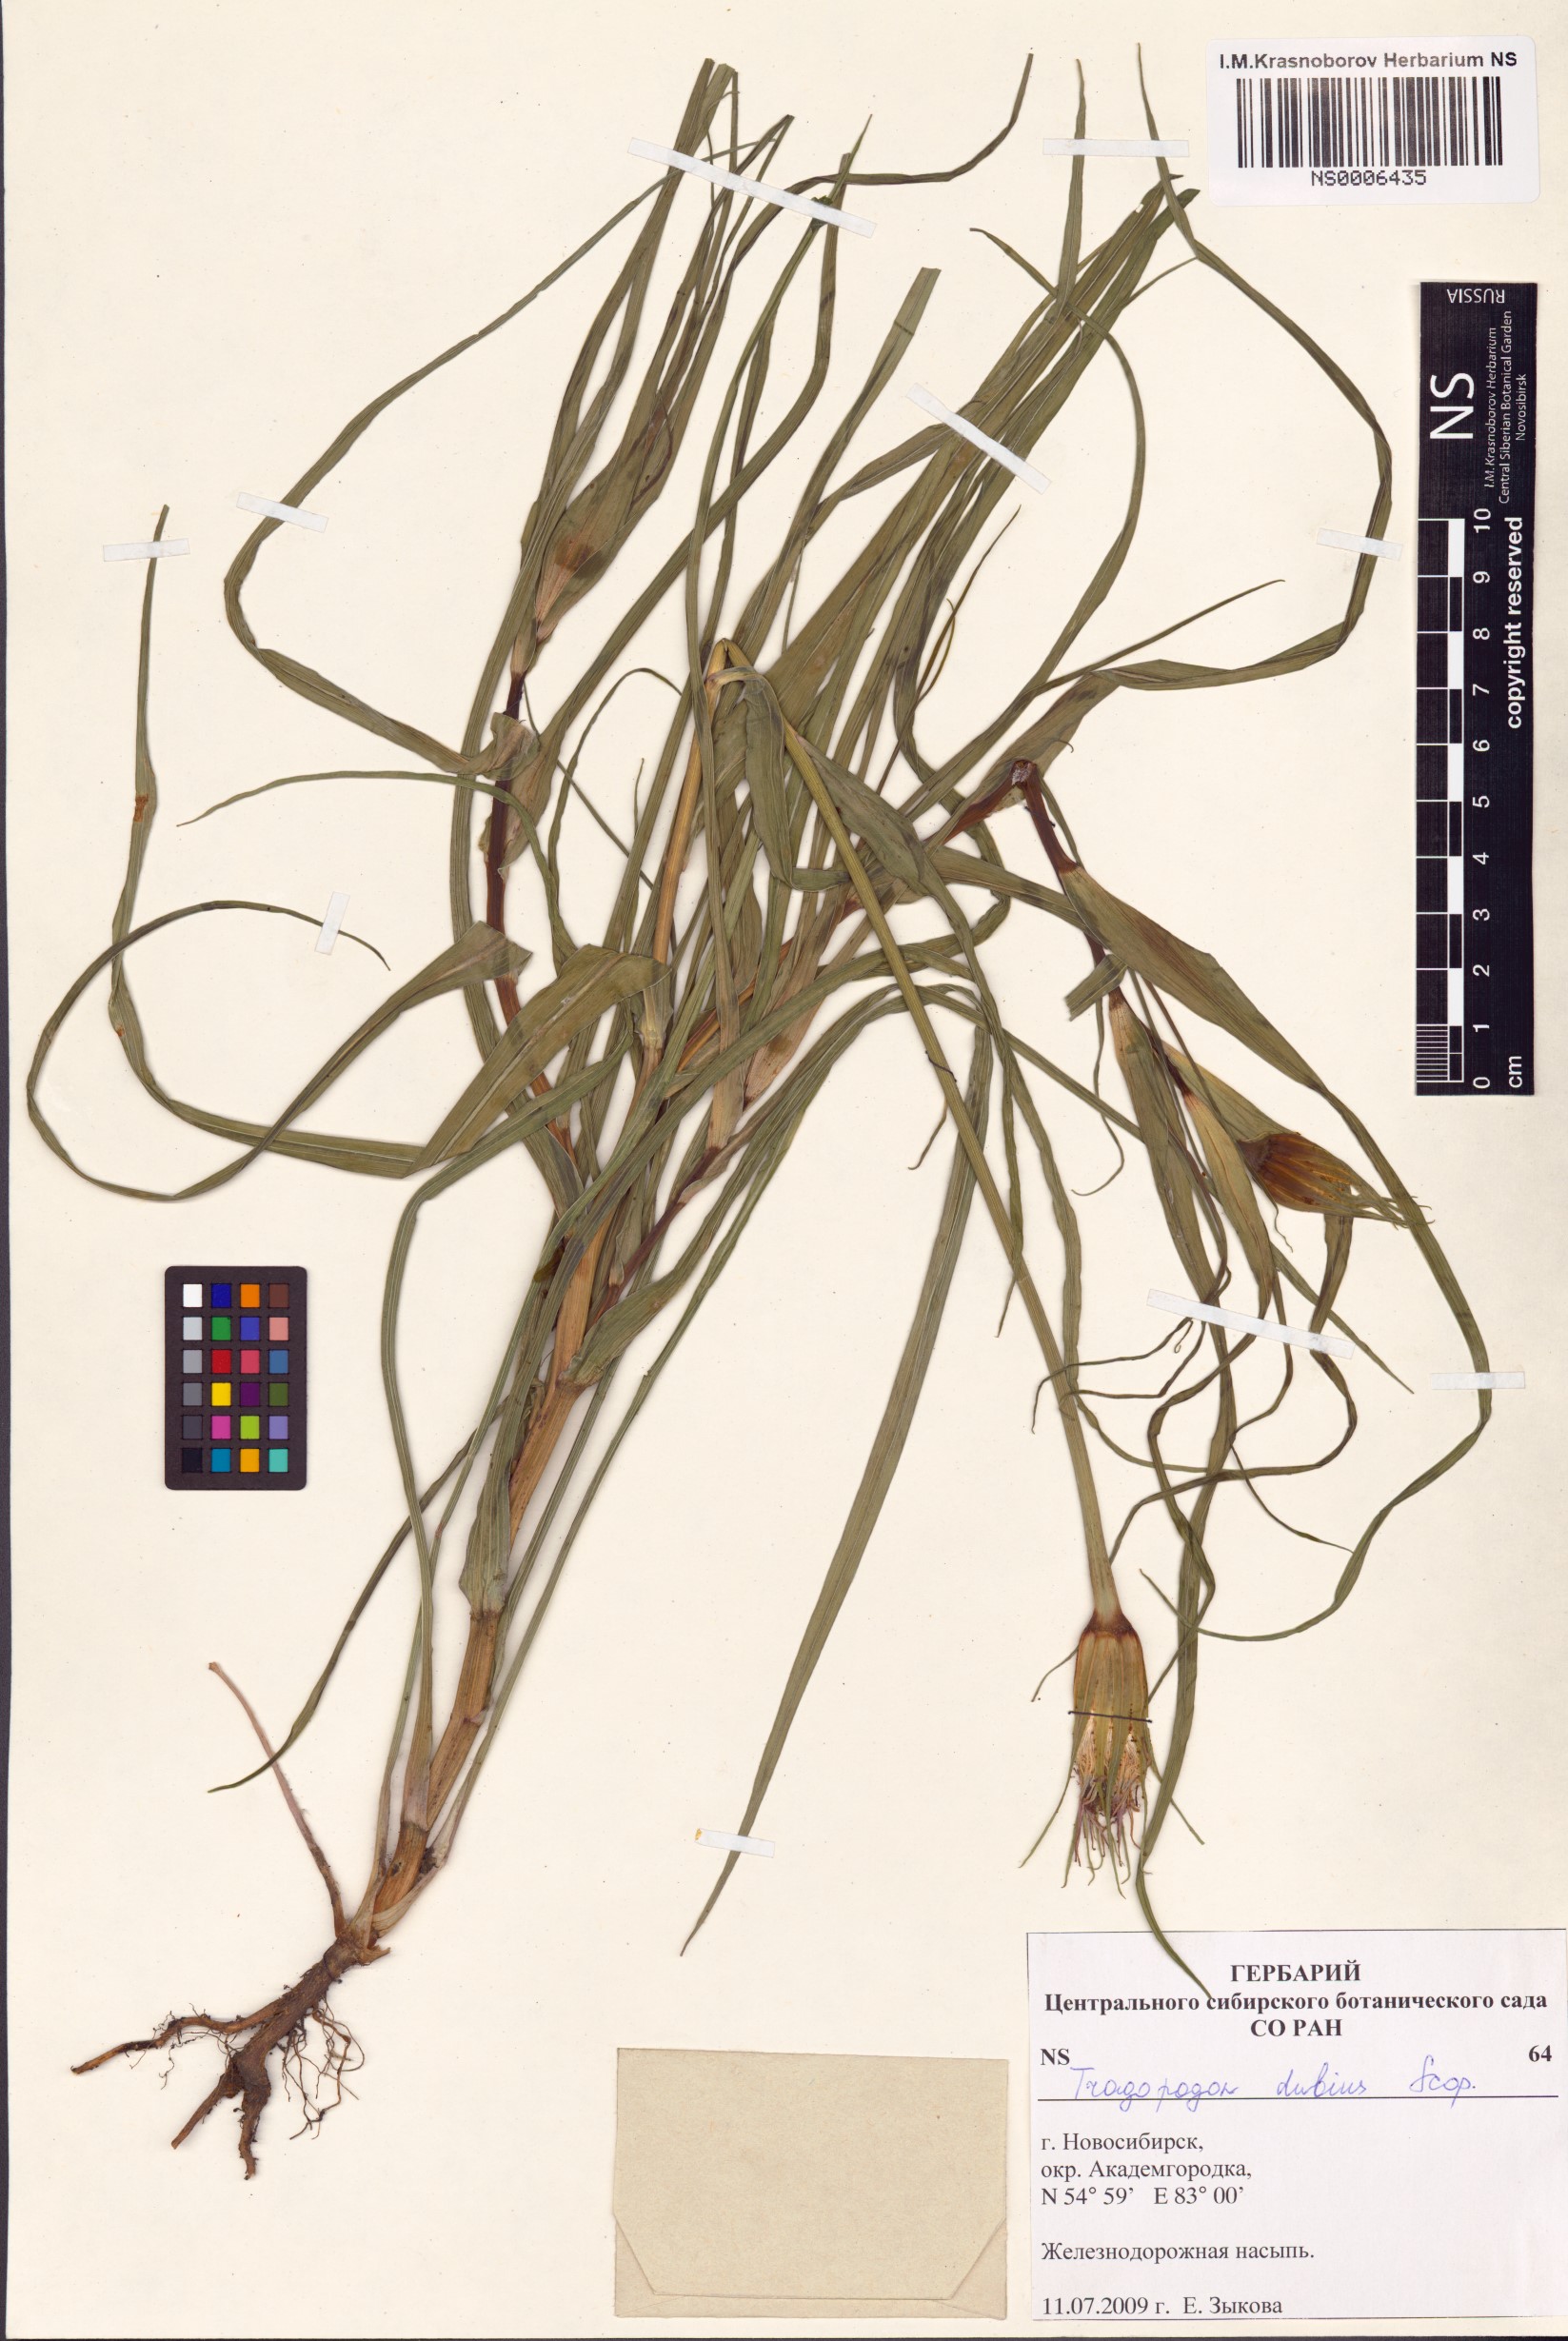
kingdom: Plantae
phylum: Tracheophyta
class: Magnoliopsida
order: Asterales
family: Asteraceae
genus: Tragopogon
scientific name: Tragopogon dubius
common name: Yellow salsify
